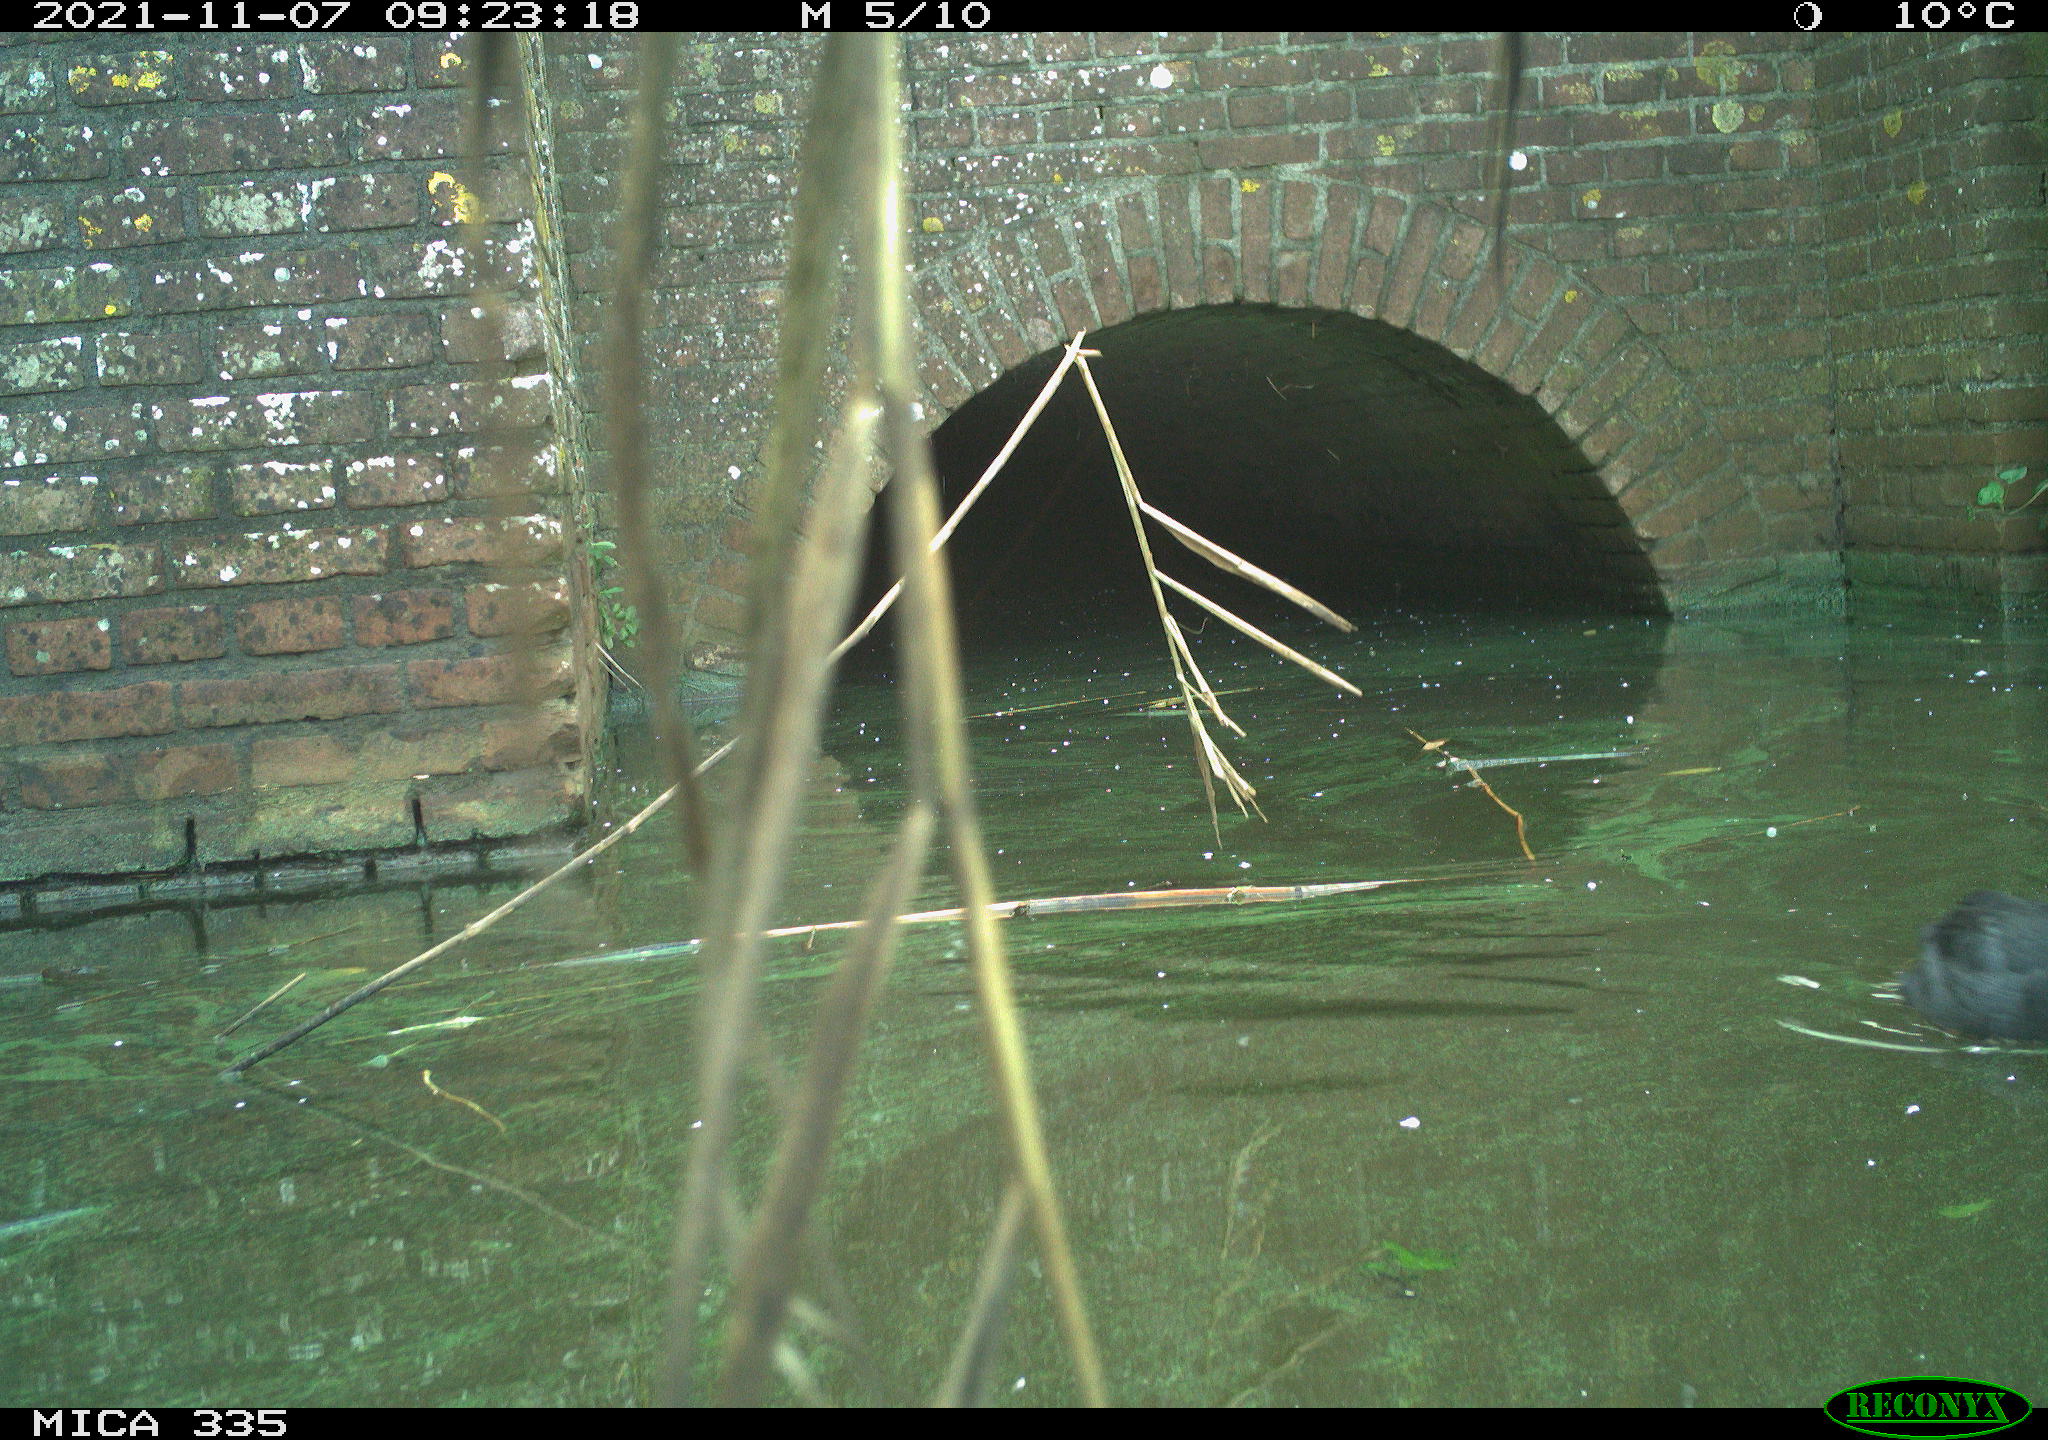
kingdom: Animalia
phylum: Chordata
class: Aves
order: Gruiformes
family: Rallidae
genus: Fulica
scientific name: Fulica atra
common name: Eurasian coot
